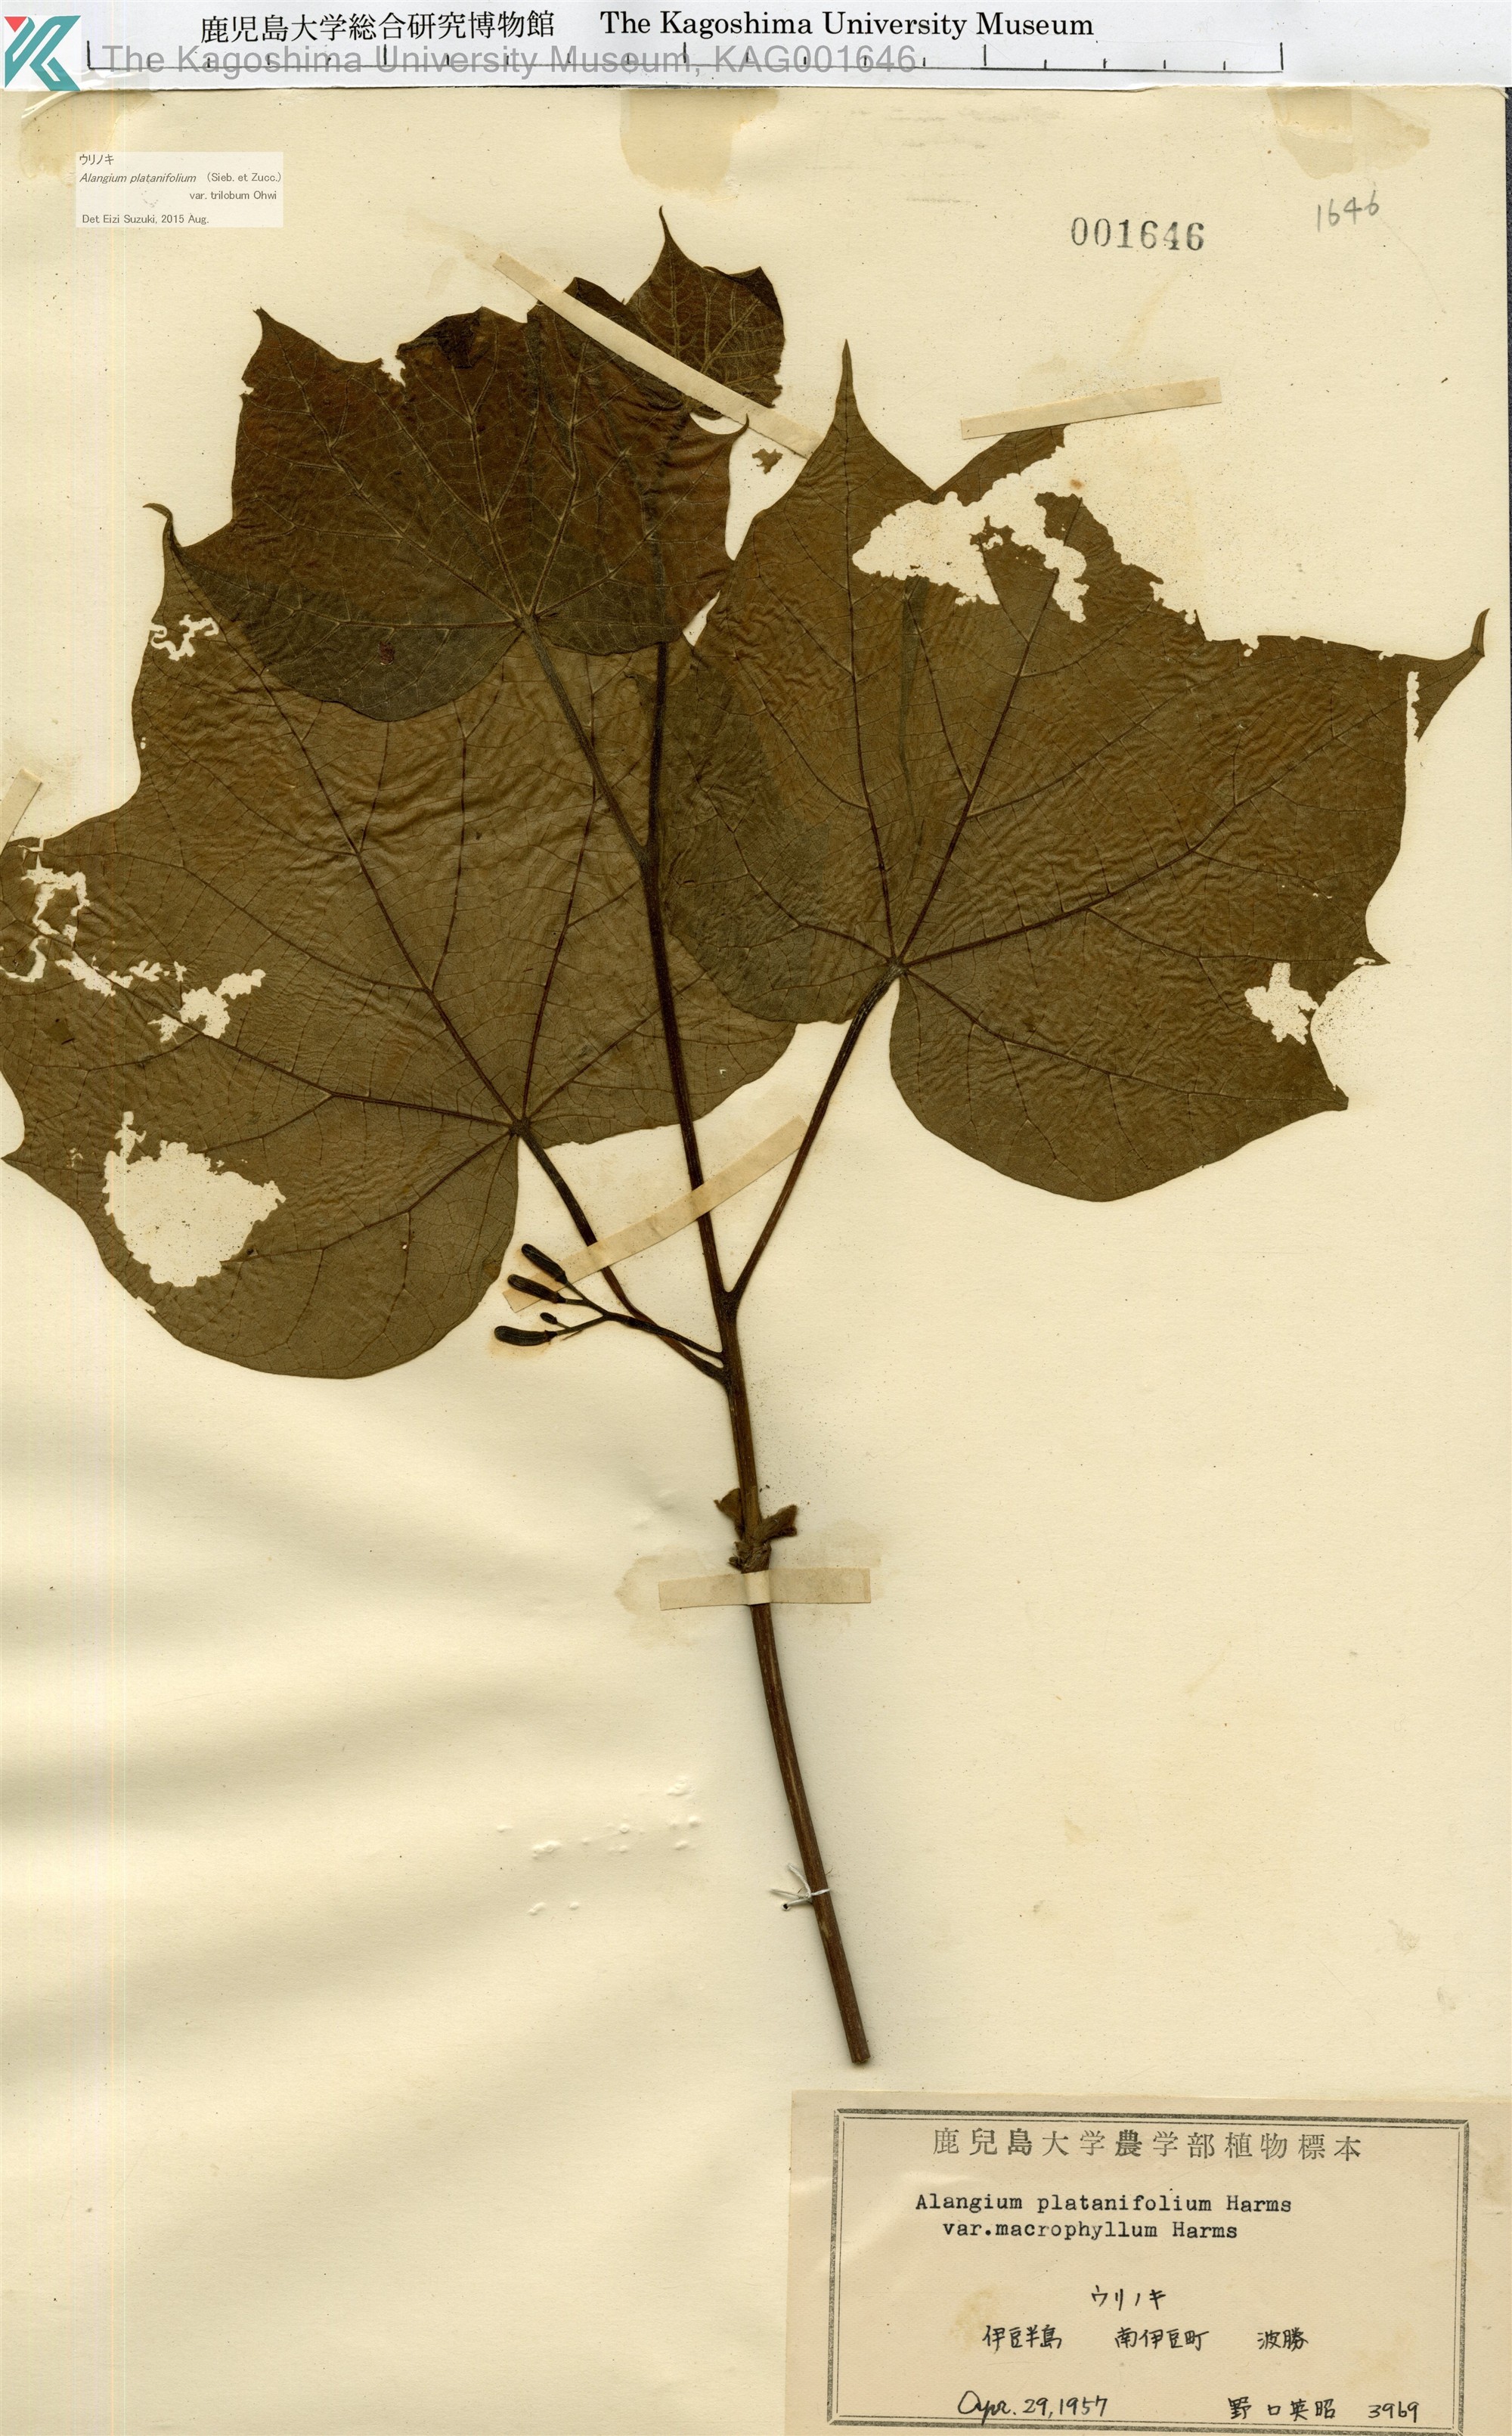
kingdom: Plantae
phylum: Tracheophyta
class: Magnoliopsida
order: Cornales
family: Cornaceae
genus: Alangium
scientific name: Alangium platanifolium
